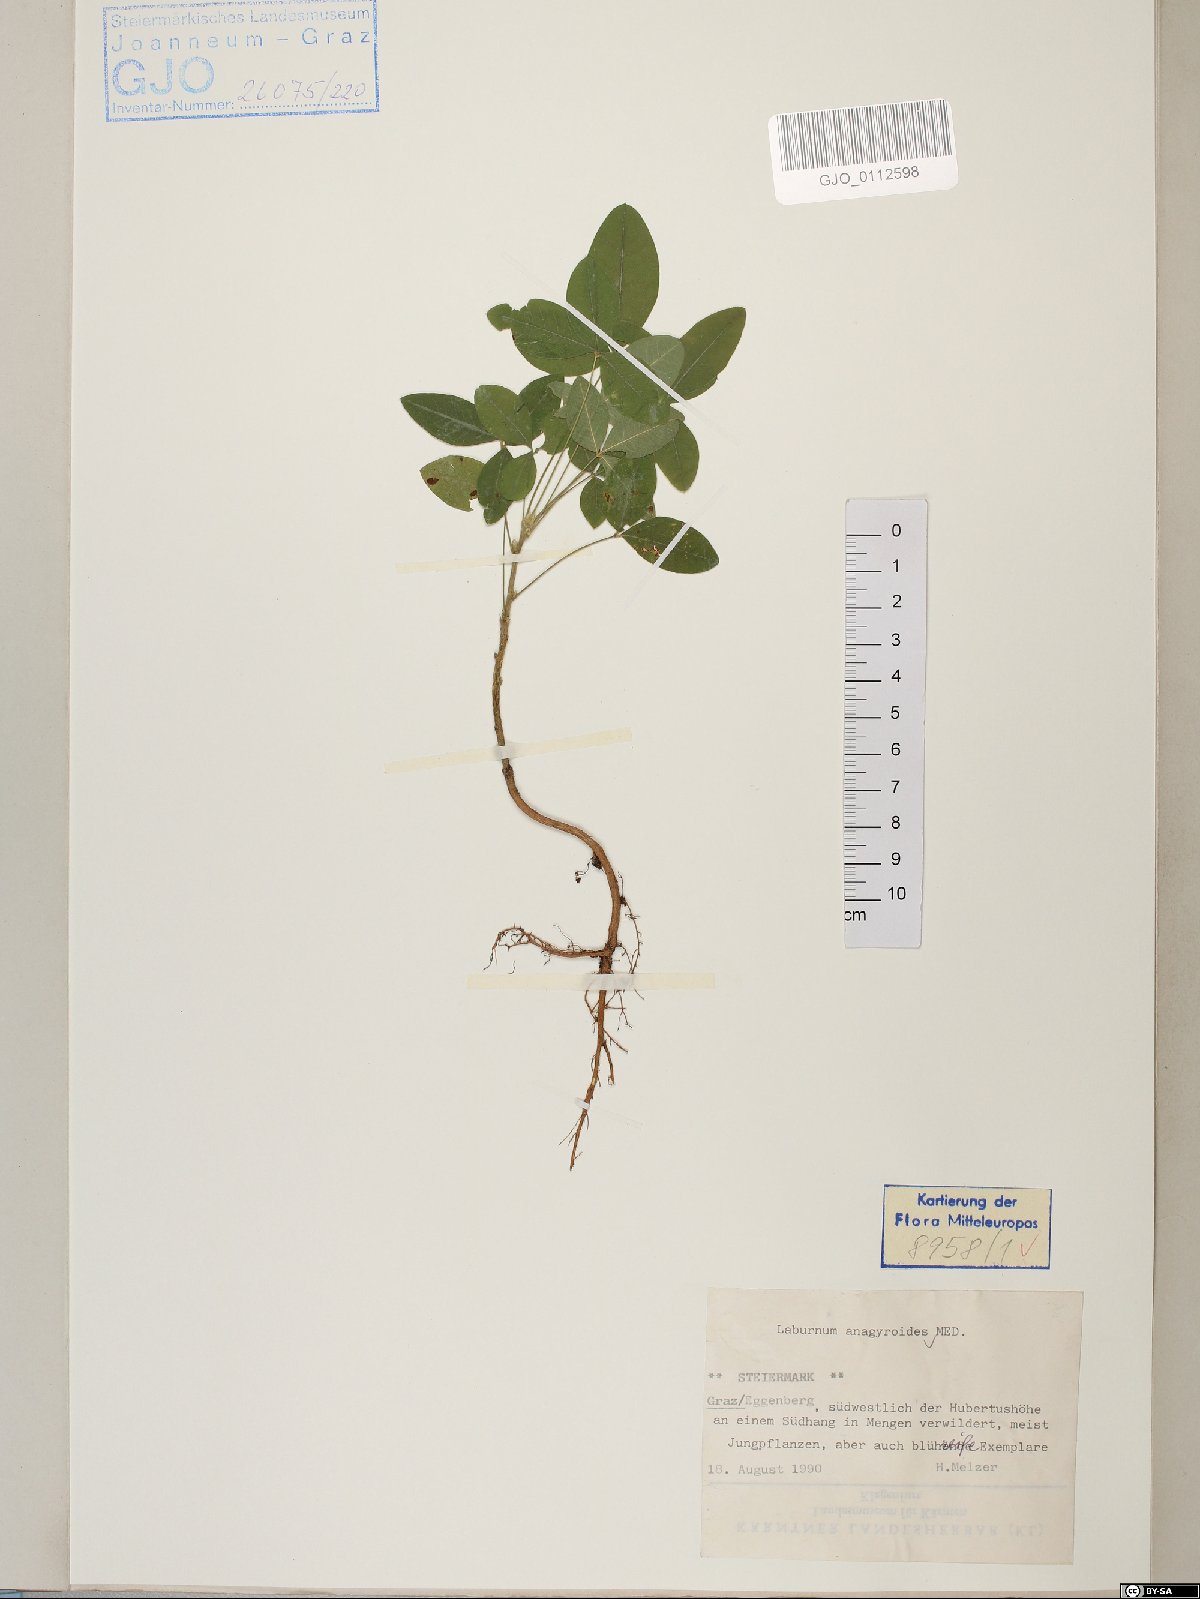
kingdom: Plantae
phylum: Tracheophyta
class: Magnoliopsida
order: Fabales
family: Fabaceae
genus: Laburnum
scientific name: Laburnum anagyroides
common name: Laburnum
